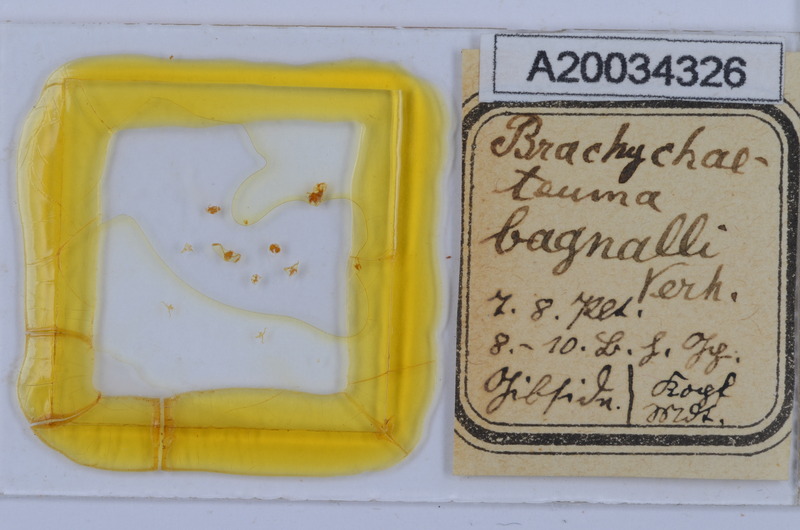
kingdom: Animalia
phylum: Arthropoda
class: Diplopoda
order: Chordeumatida
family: Brachychaeteumatidae
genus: Brachychaeteuma
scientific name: Brachychaeteuma bagnalli
